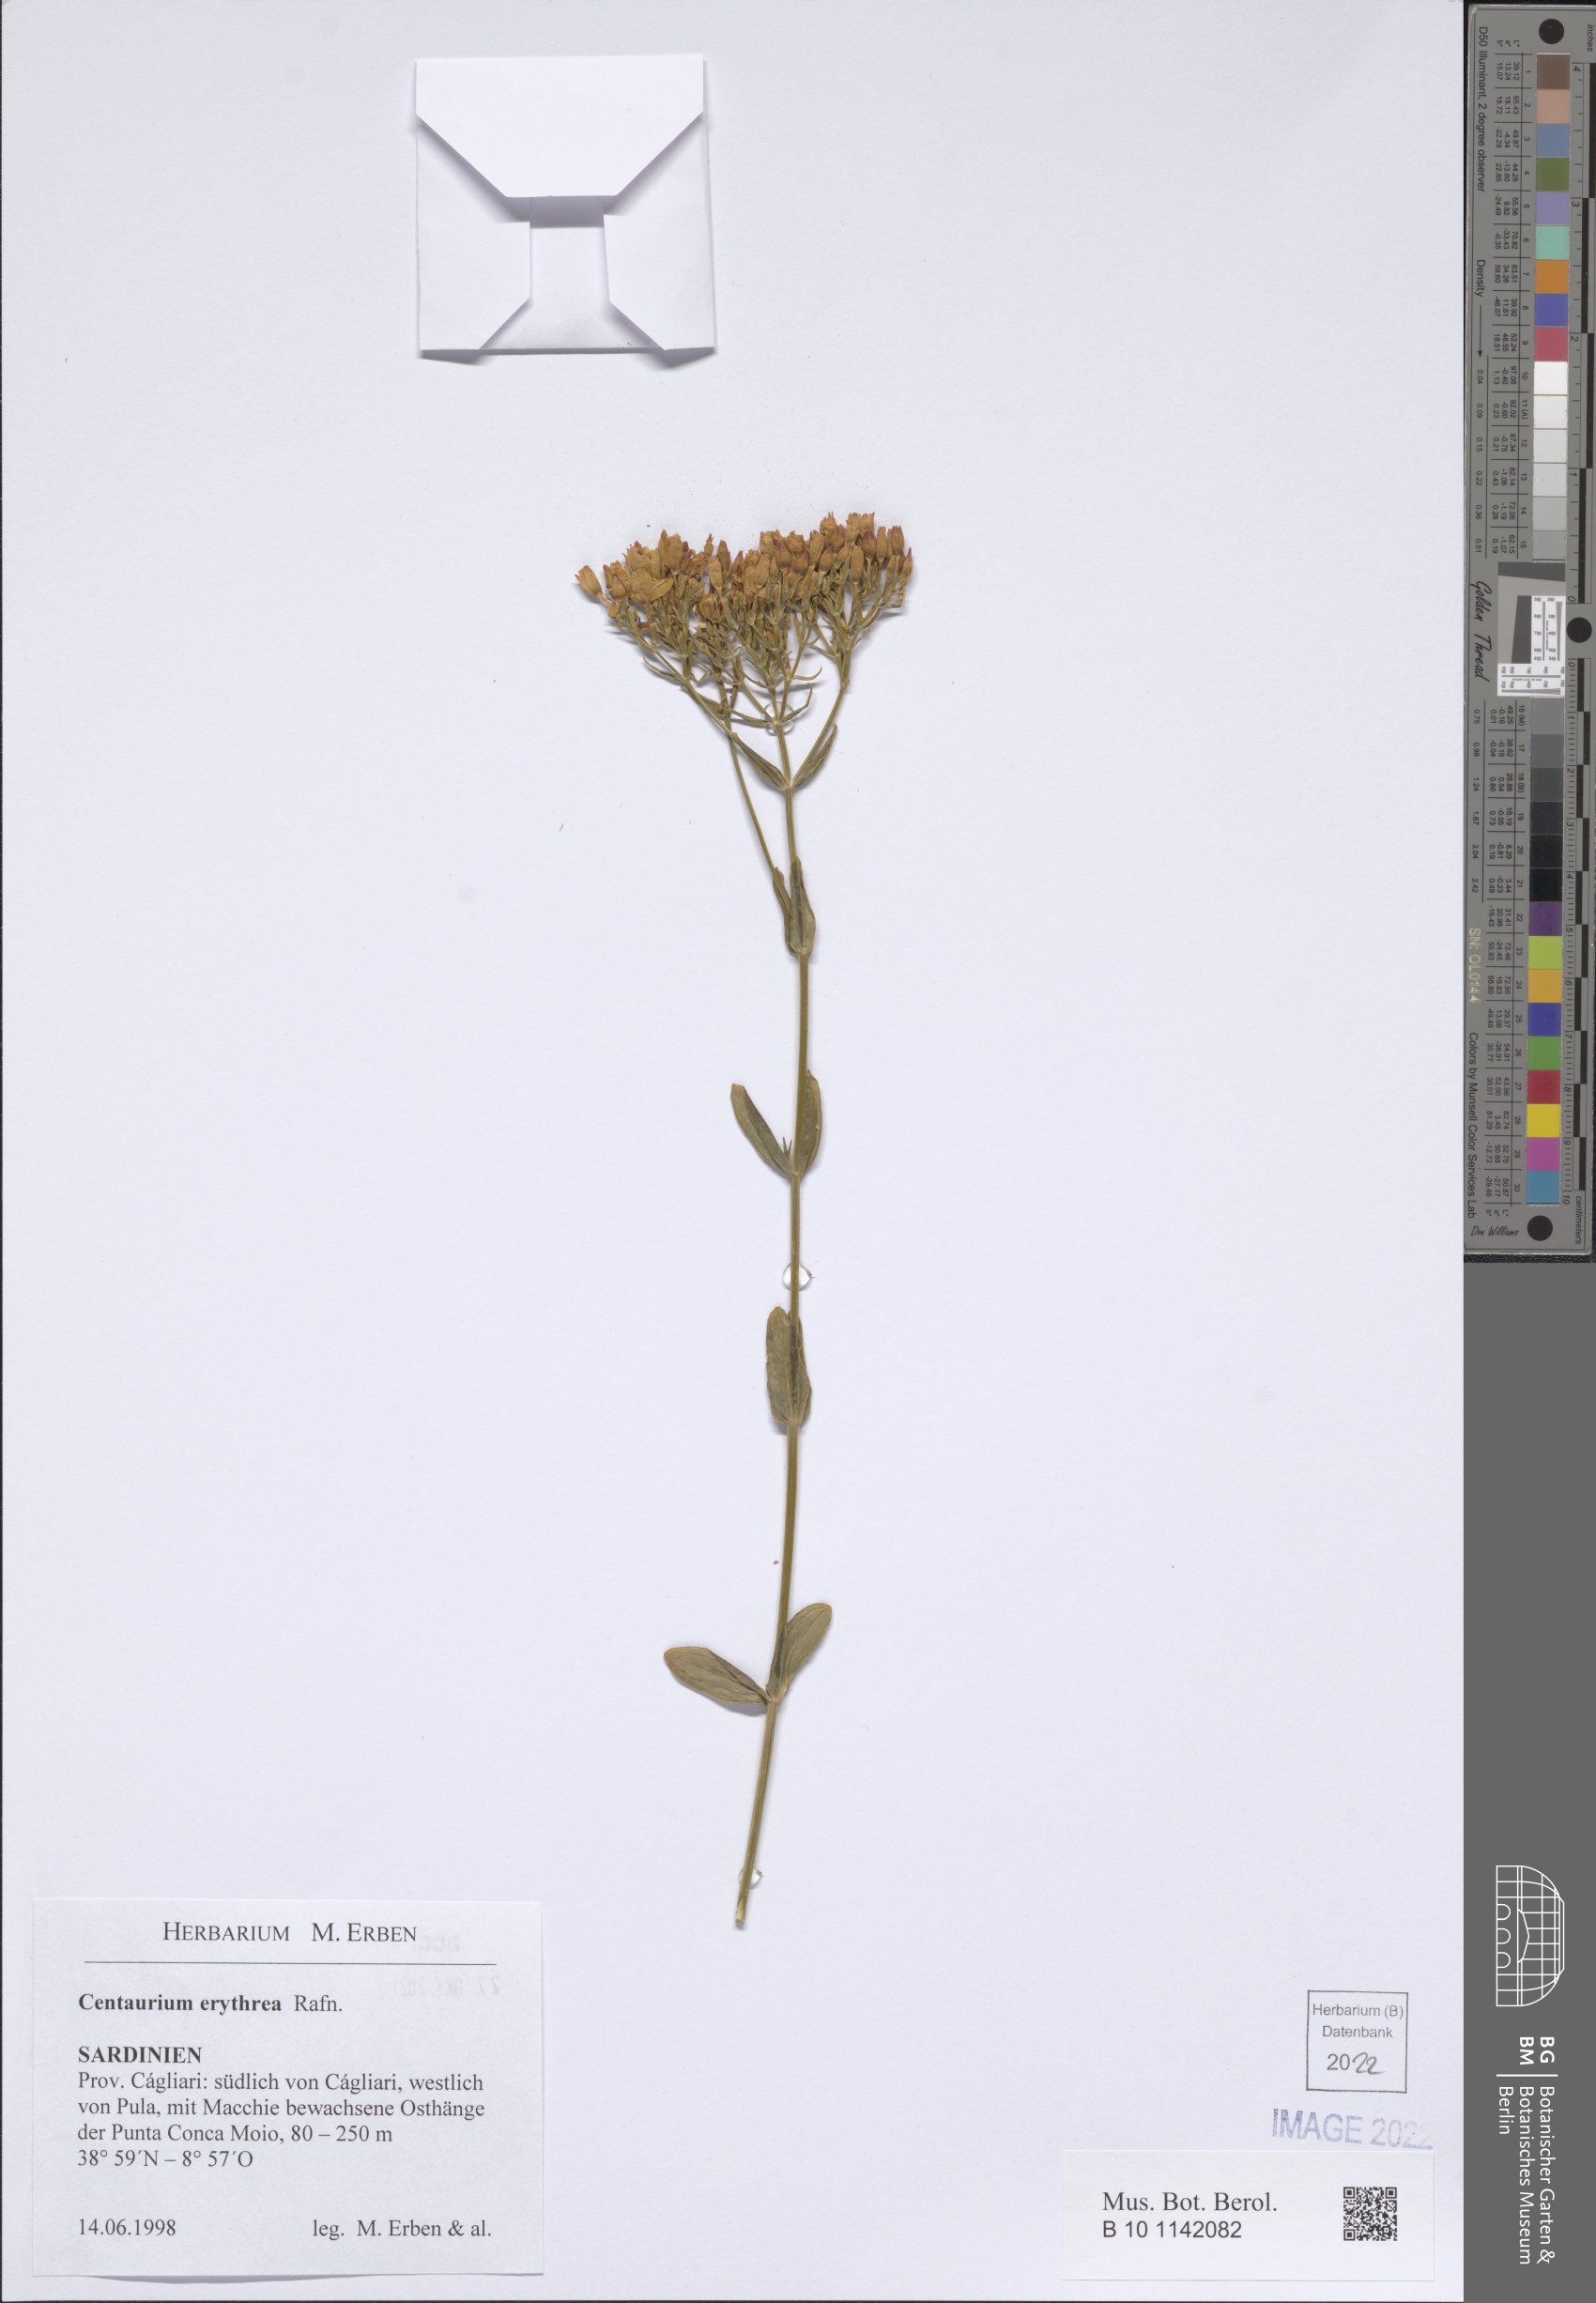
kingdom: Plantae
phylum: Tracheophyta
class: Magnoliopsida
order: Gentianales
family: Gentianaceae
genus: Centaurium
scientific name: Centaurium erythraea
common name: Common centaury
